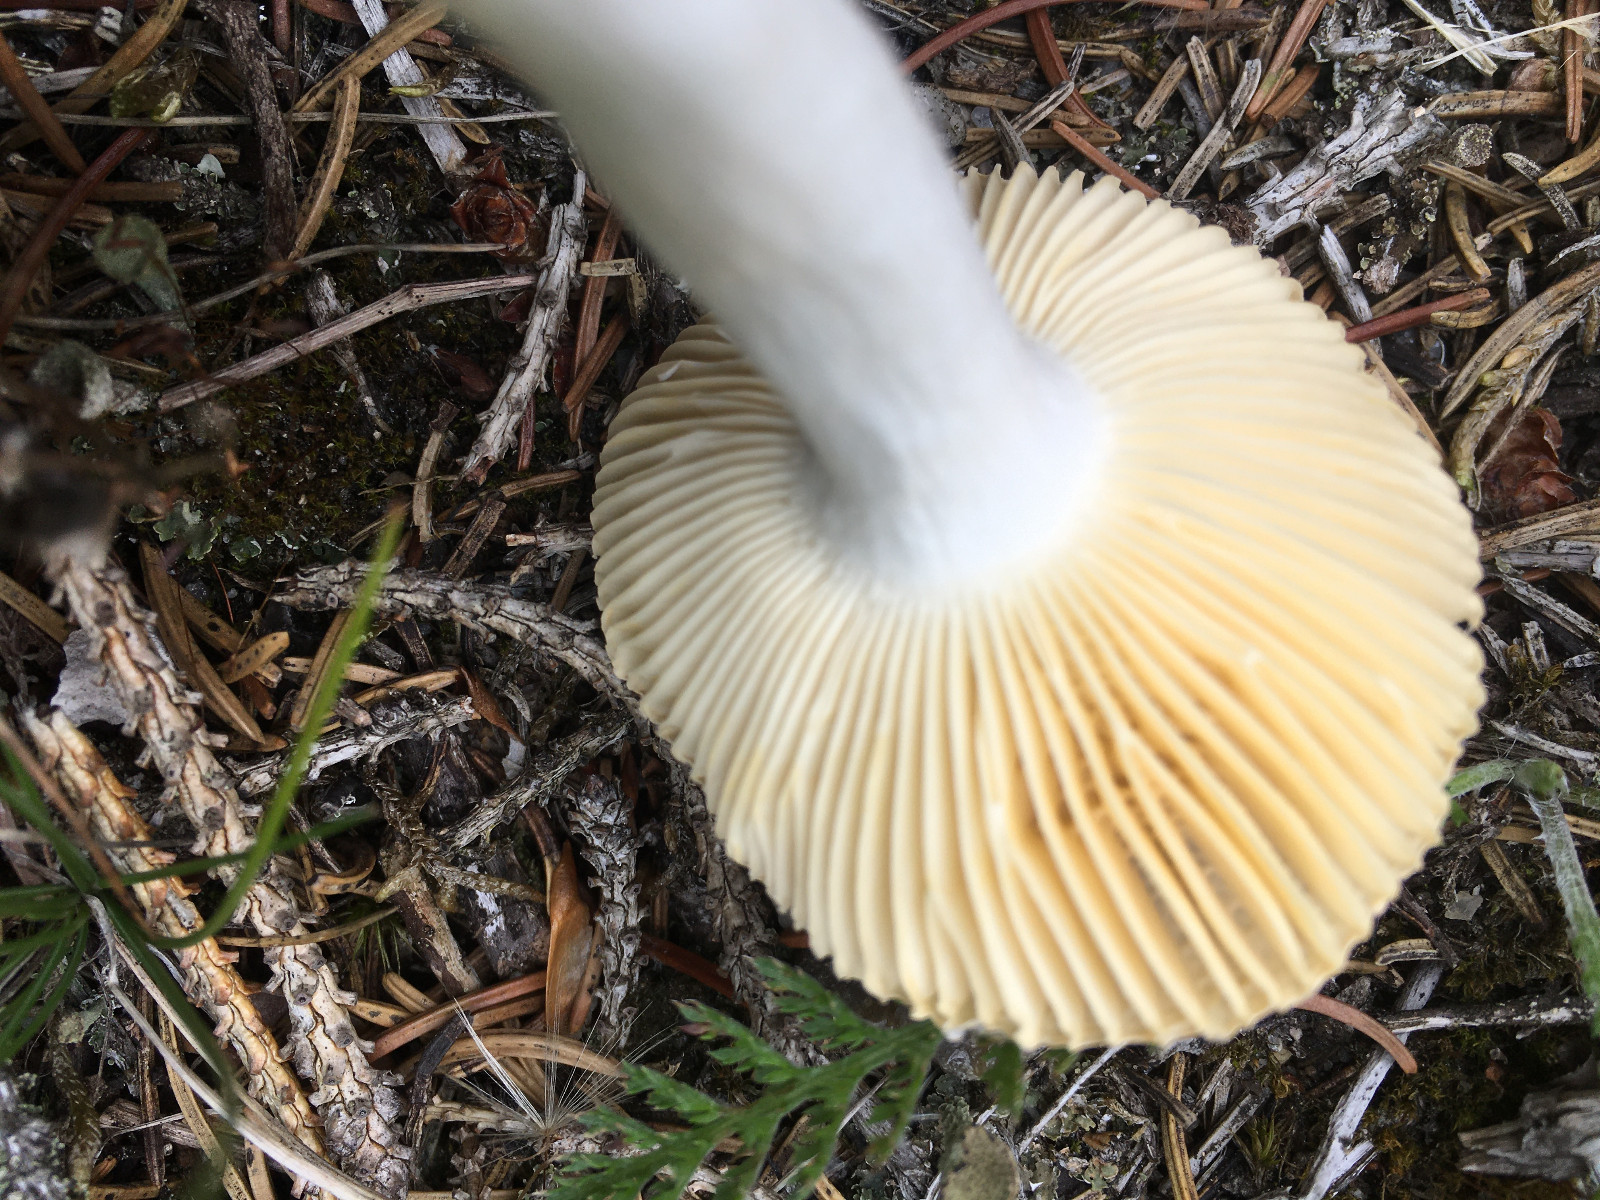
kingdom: Fungi
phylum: Basidiomycota
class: Agaricomycetes
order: Russulales
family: Russulaceae
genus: Russula
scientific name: Russula nauseosa
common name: spinkel skørhat
